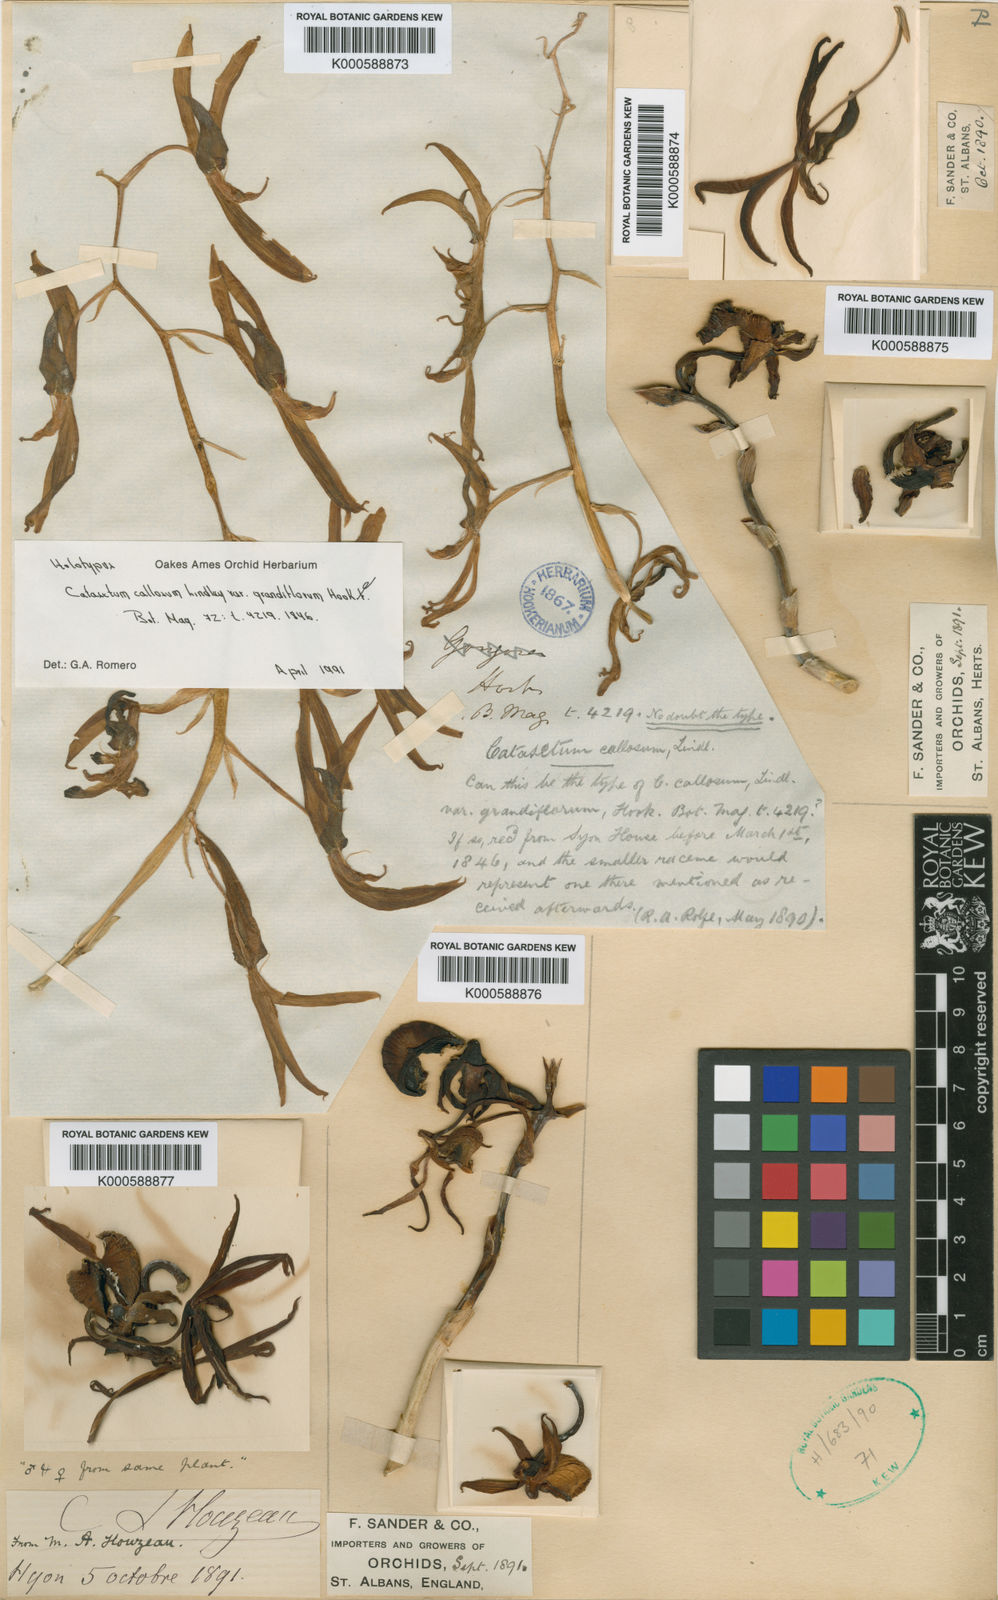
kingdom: Plantae
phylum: Tracheophyta
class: Liliopsida
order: Asparagales
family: Orchidaceae
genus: Catasetum
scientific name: Catasetum callosum
